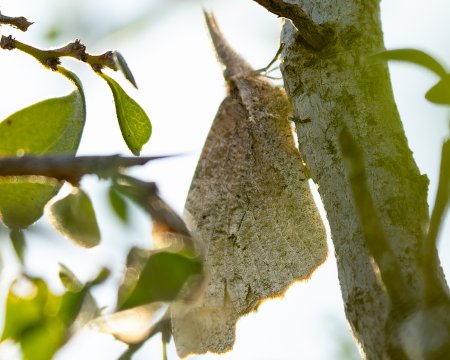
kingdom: Animalia
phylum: Arthropoda
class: Insecta
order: Lepidoptera
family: Nymphalidae
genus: Libytheana
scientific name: Libytheana carinenta
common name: American Snout
